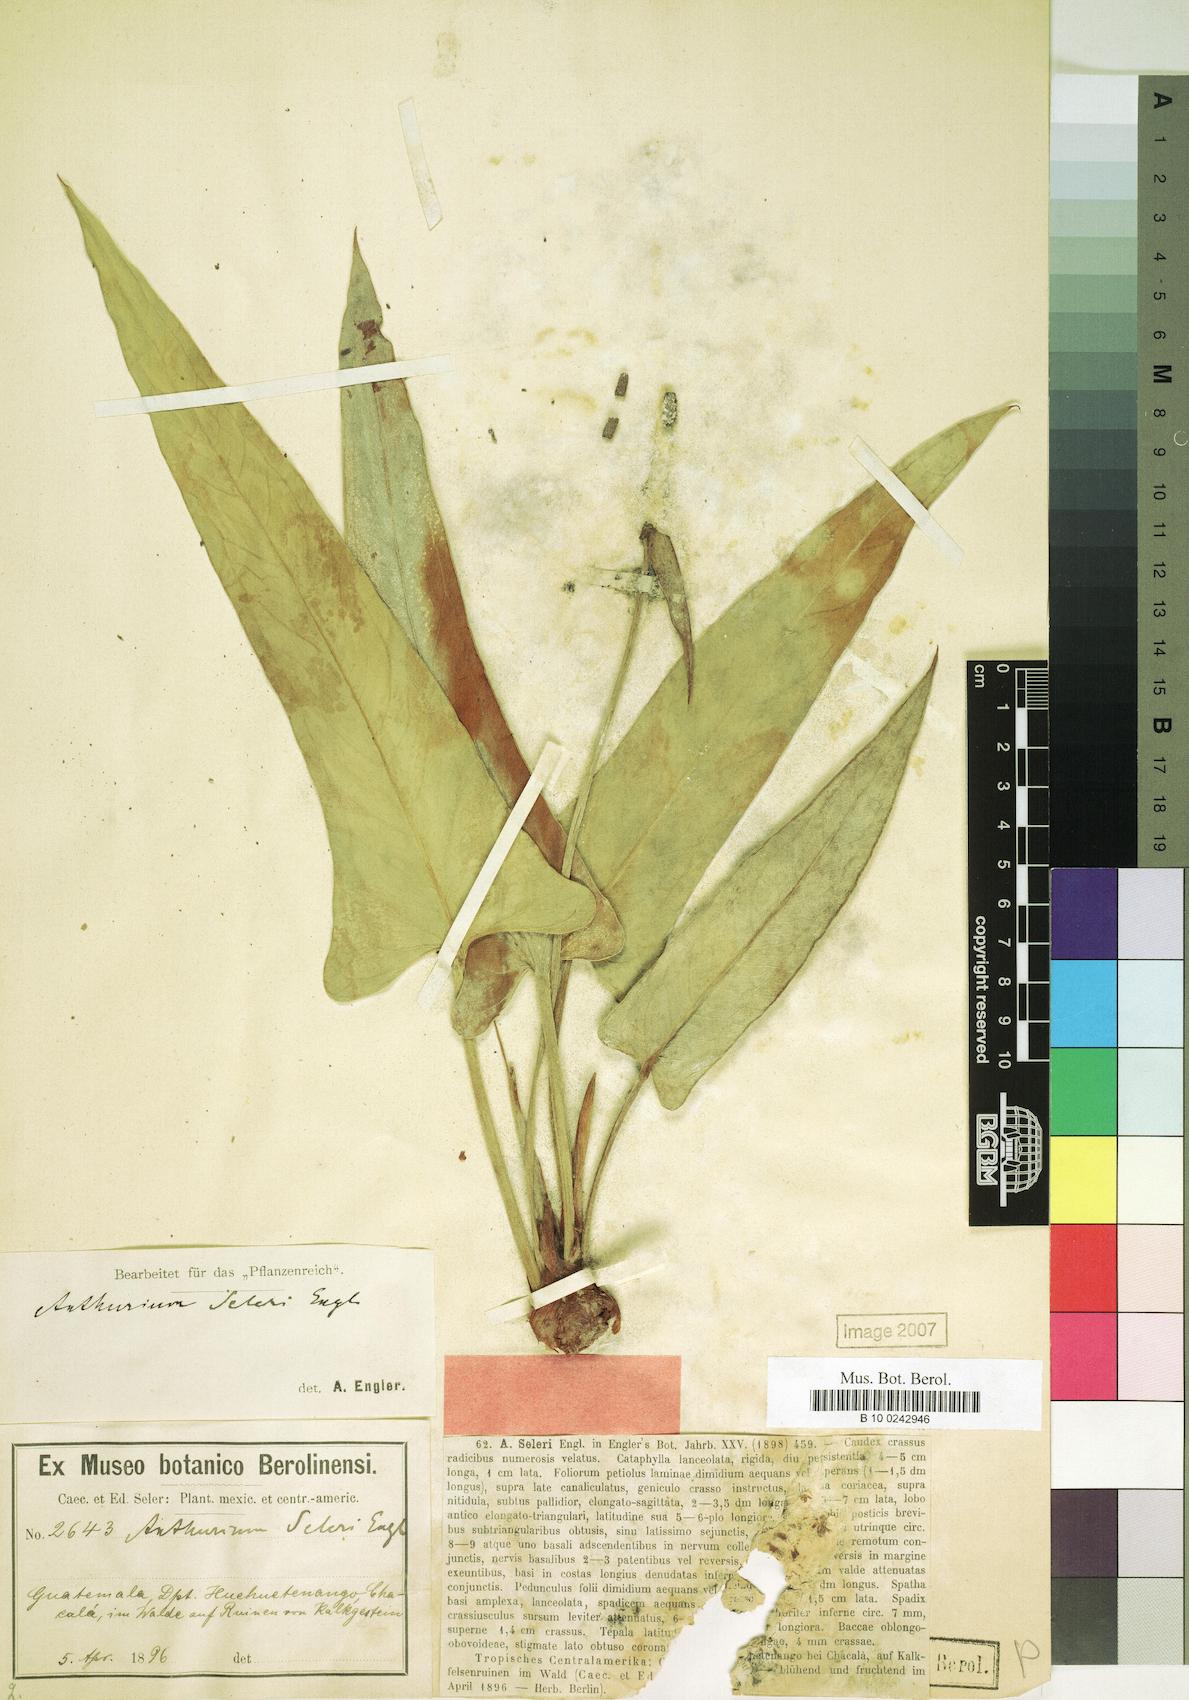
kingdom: Plantae
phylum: Tracheophyta
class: Liliopsida
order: Alismatales
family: Araceae
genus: Anthurium
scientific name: Anthurium seleri
